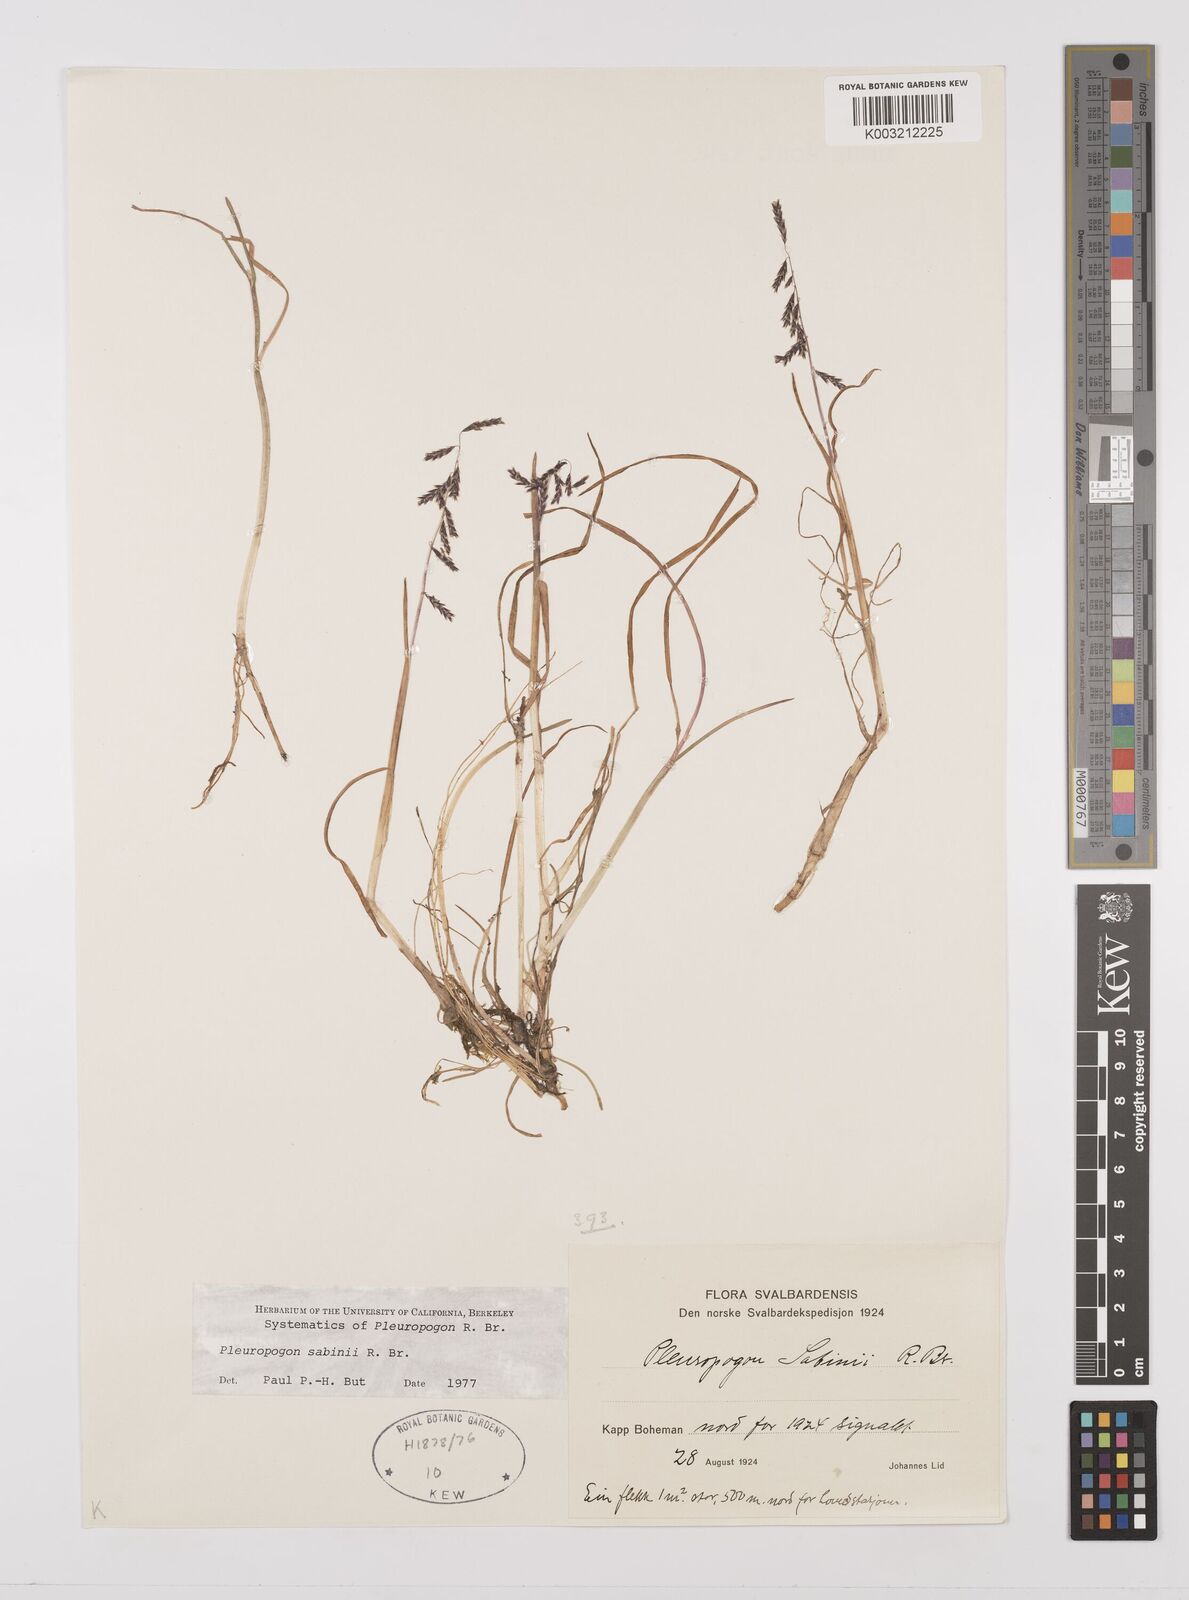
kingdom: Plantae
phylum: Tracheophyta
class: Liliopsida
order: Poales
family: Poaceae
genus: Pleuropogon
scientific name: Pleuropogon sabinei
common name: Sabine's false semaphoregrass
